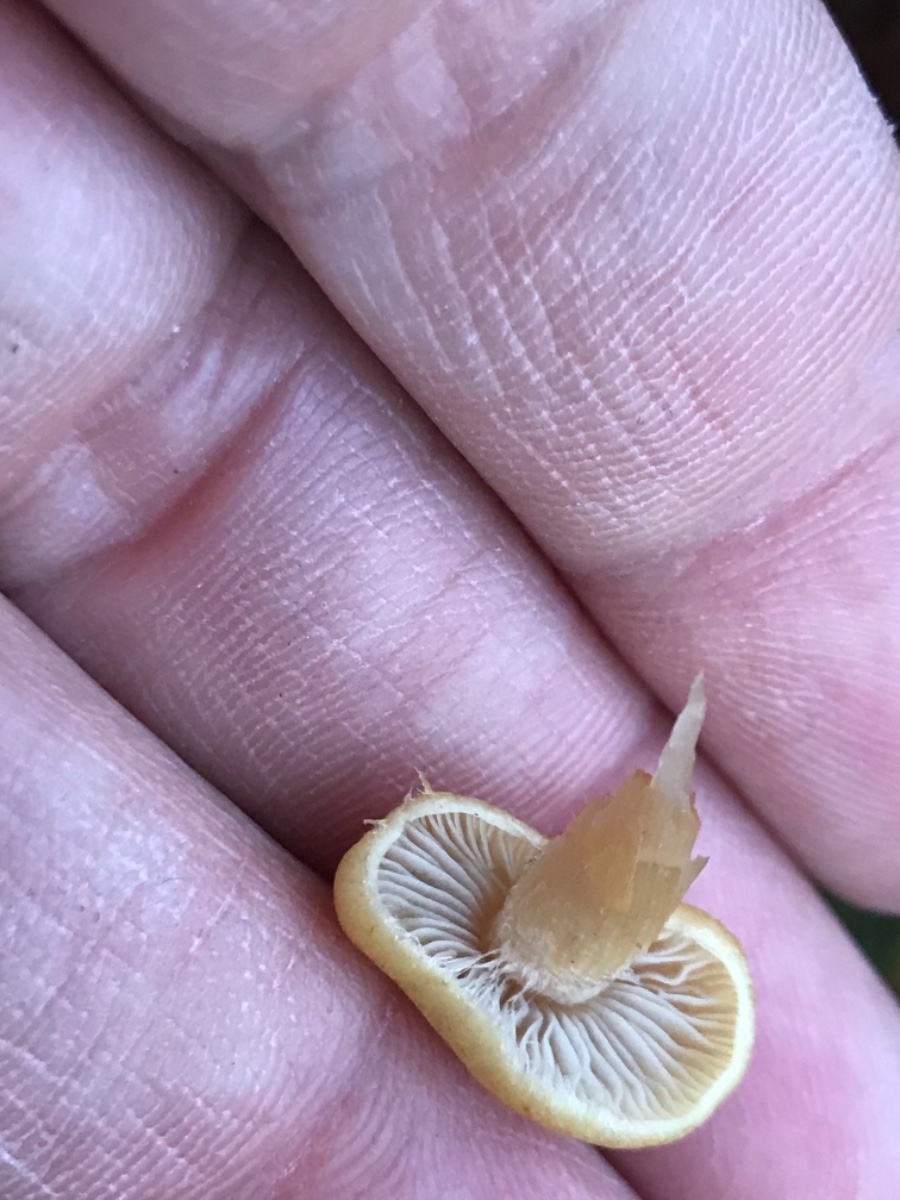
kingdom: Fungi
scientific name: Fungi
